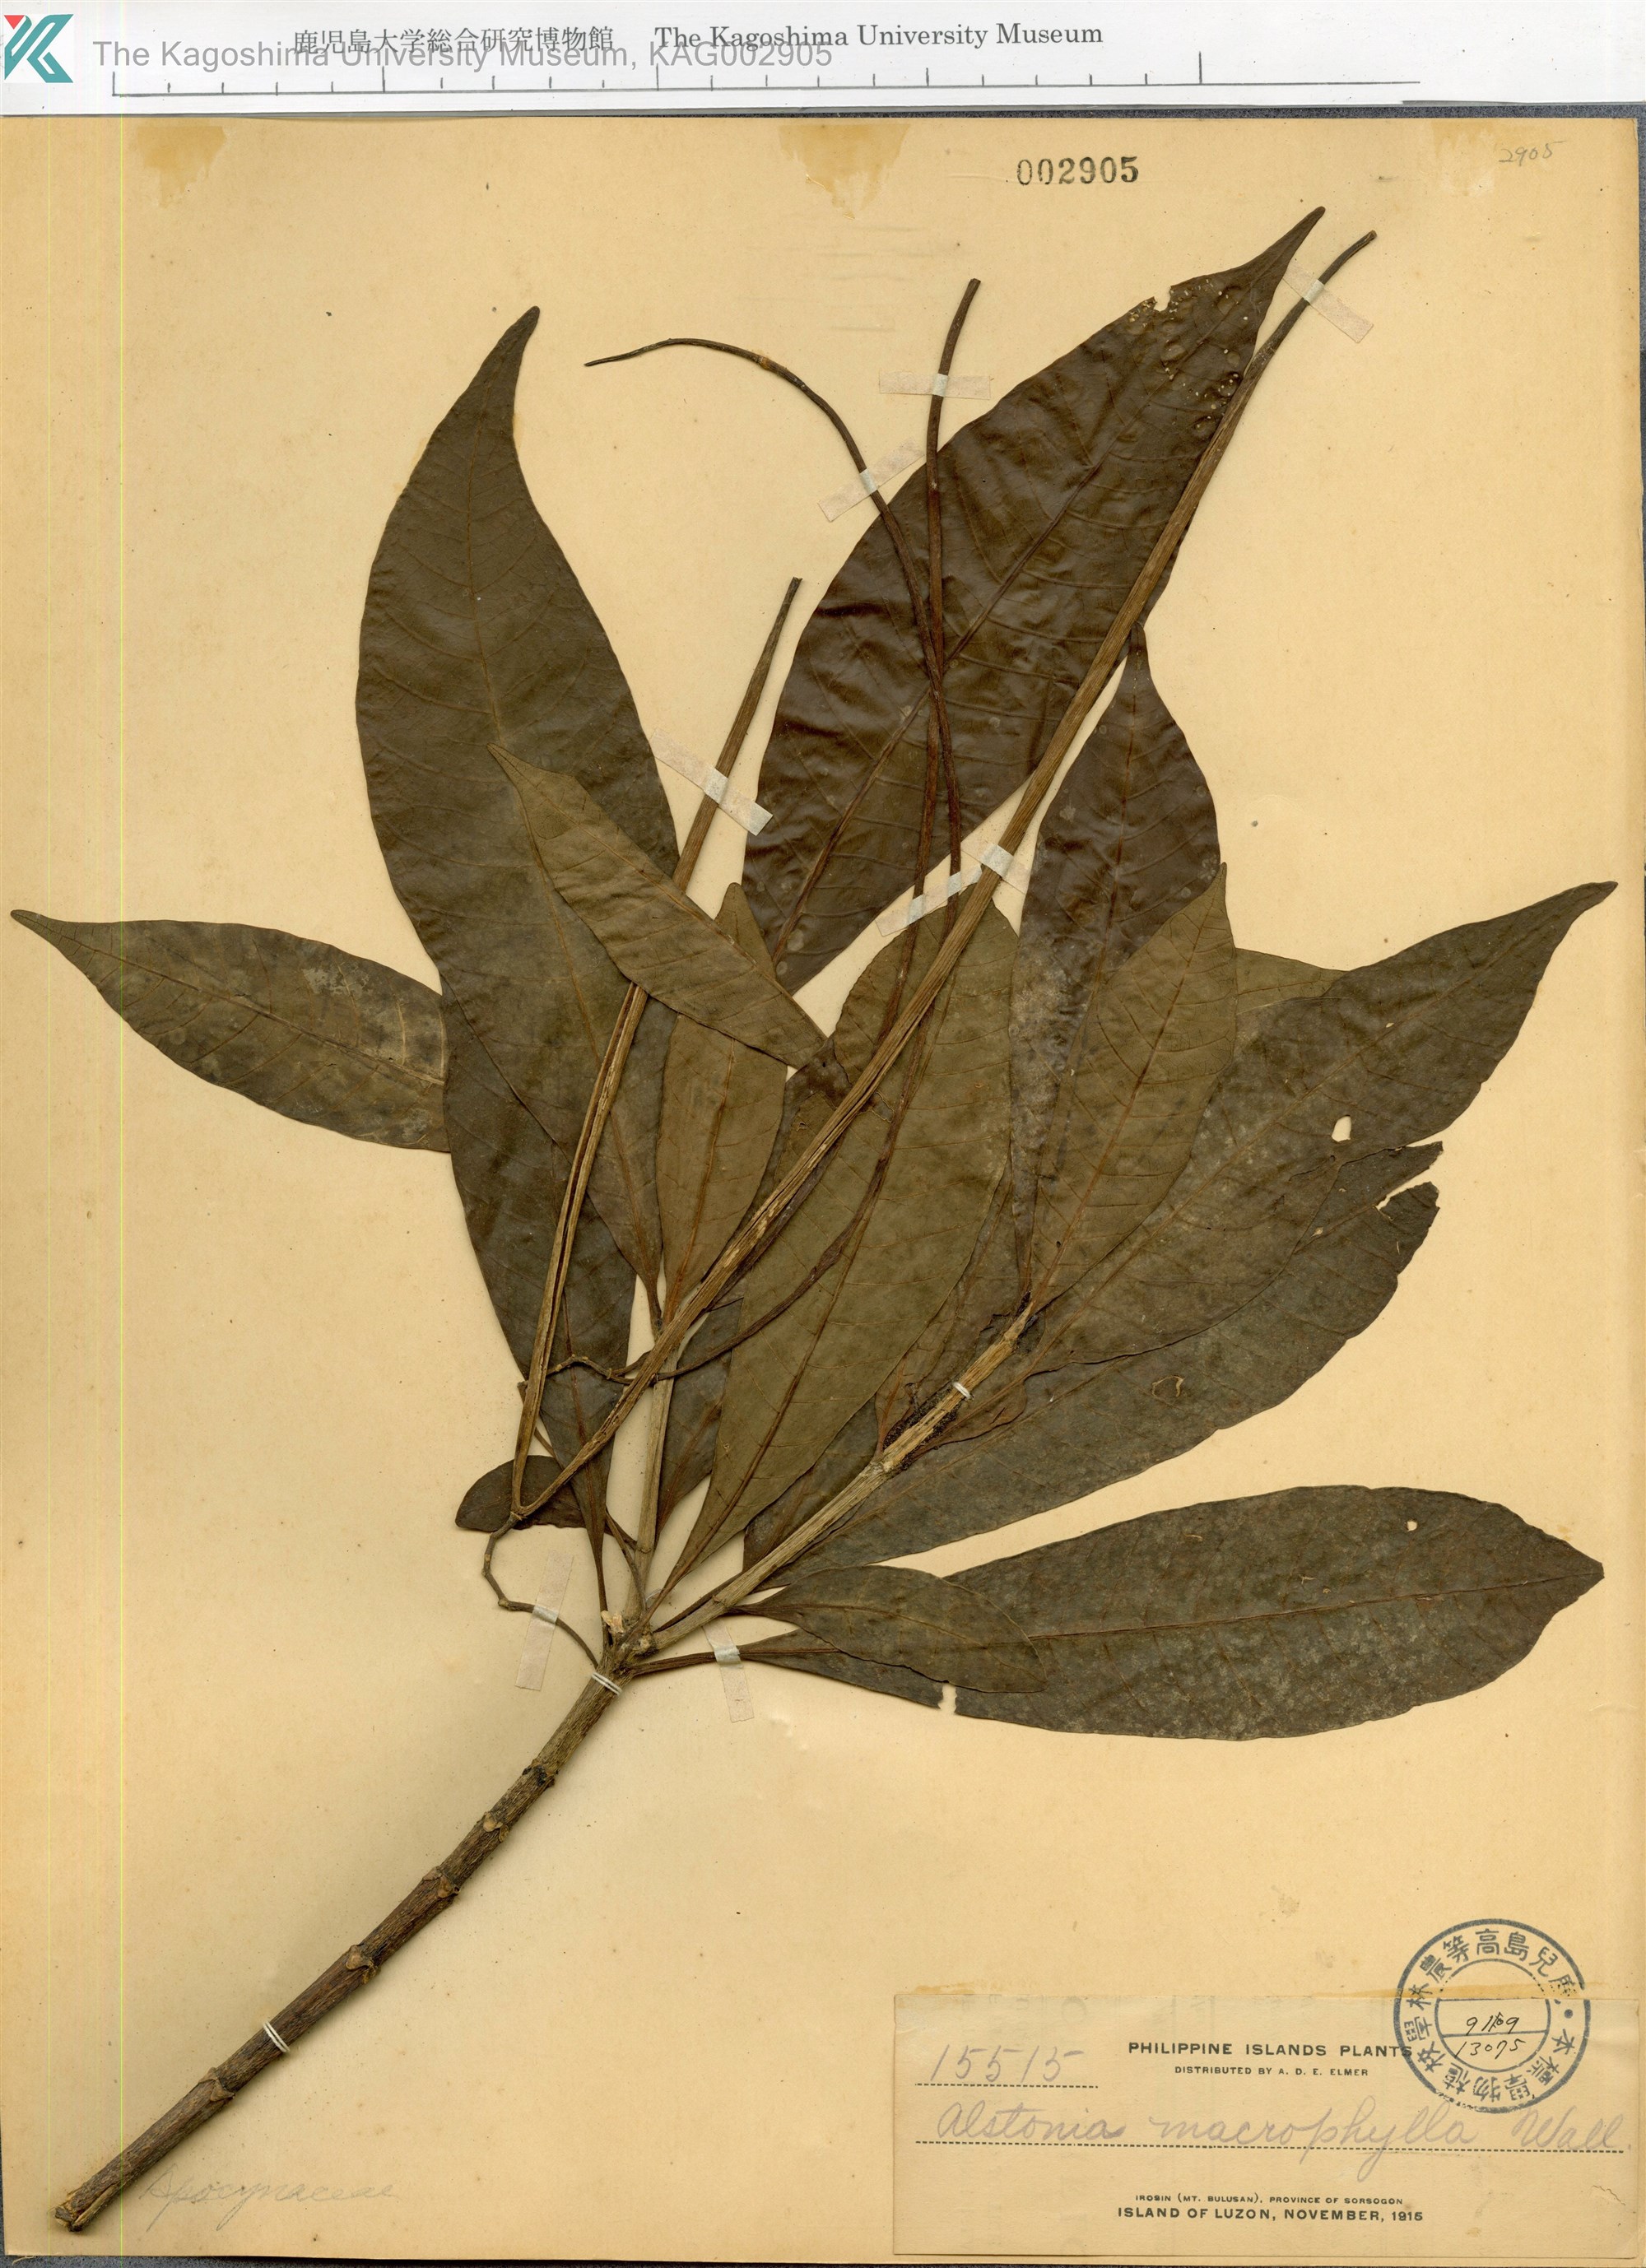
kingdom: Plantae
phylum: Tracheophyta
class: Magnoliopsida
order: Gentianales
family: Apocynaceae
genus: Alstonia
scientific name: Alstonia macrophylla
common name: Deviltree
